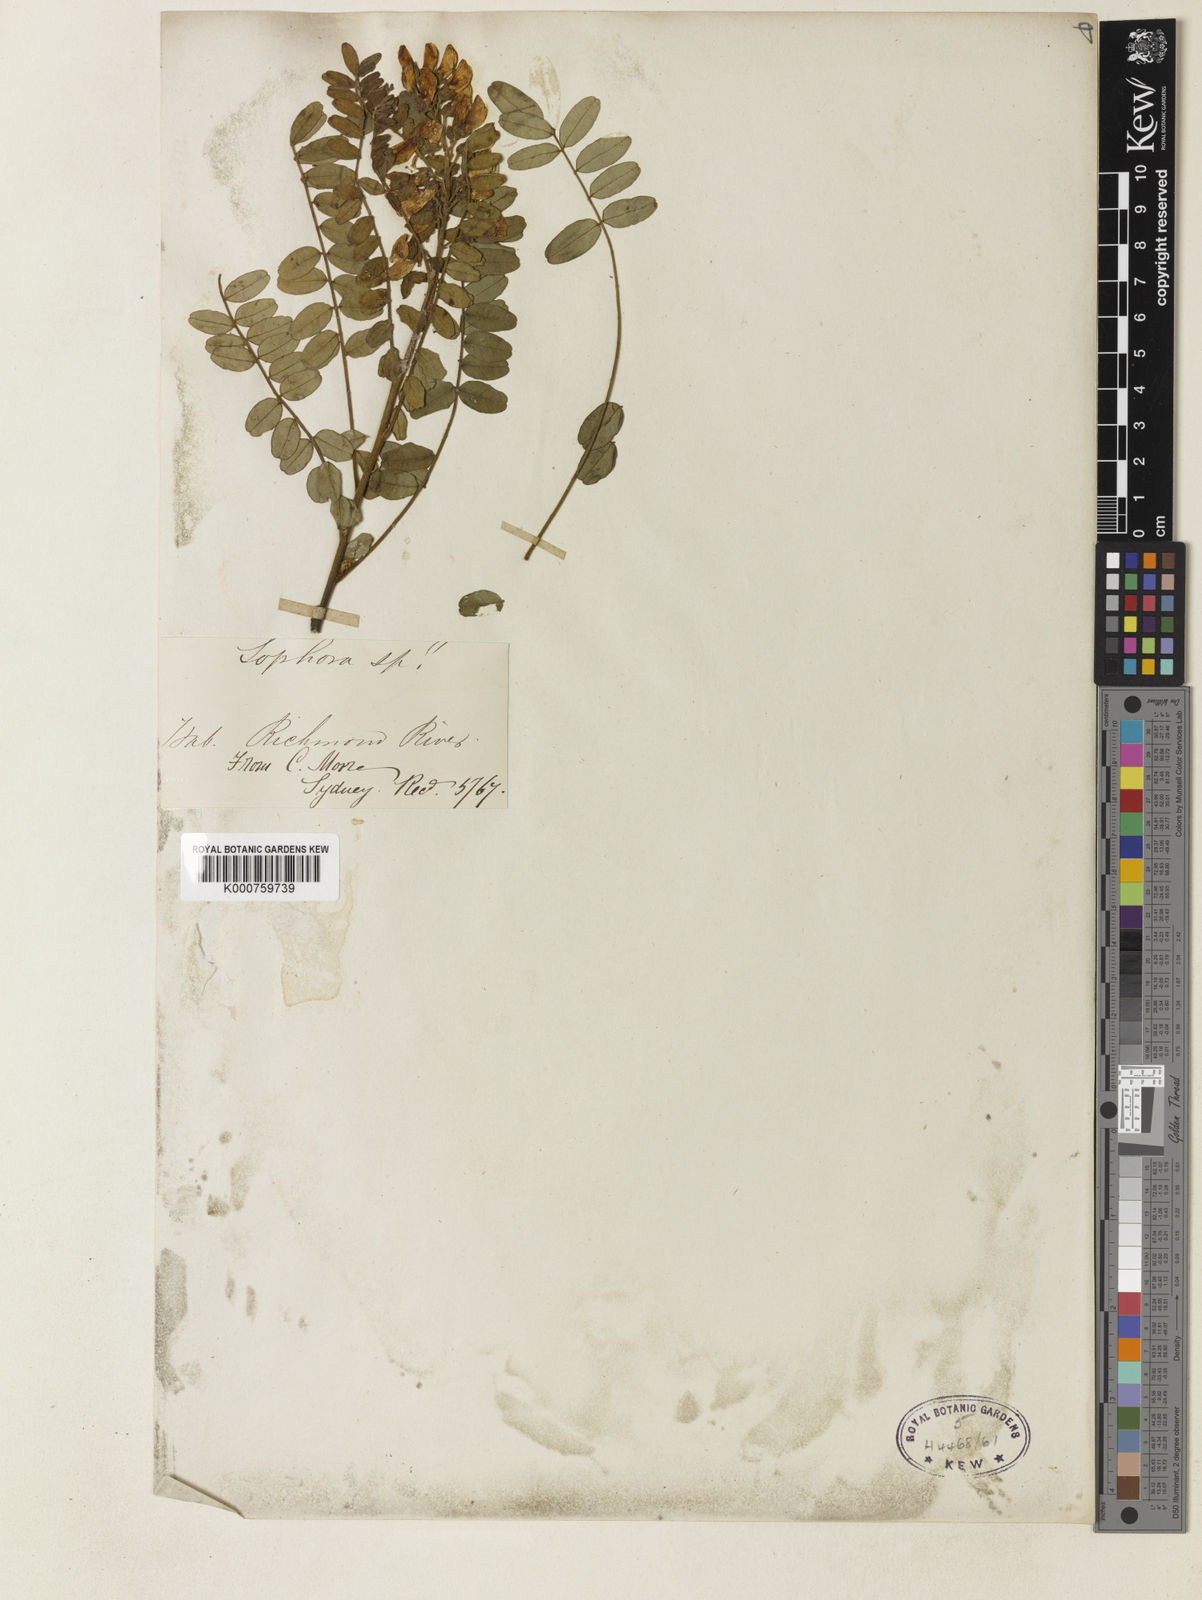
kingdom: Plantae
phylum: Tracheophyta
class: Magnoliopsida
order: Fabales
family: Fabaceae
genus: Sophora
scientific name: Sophora fraseri
